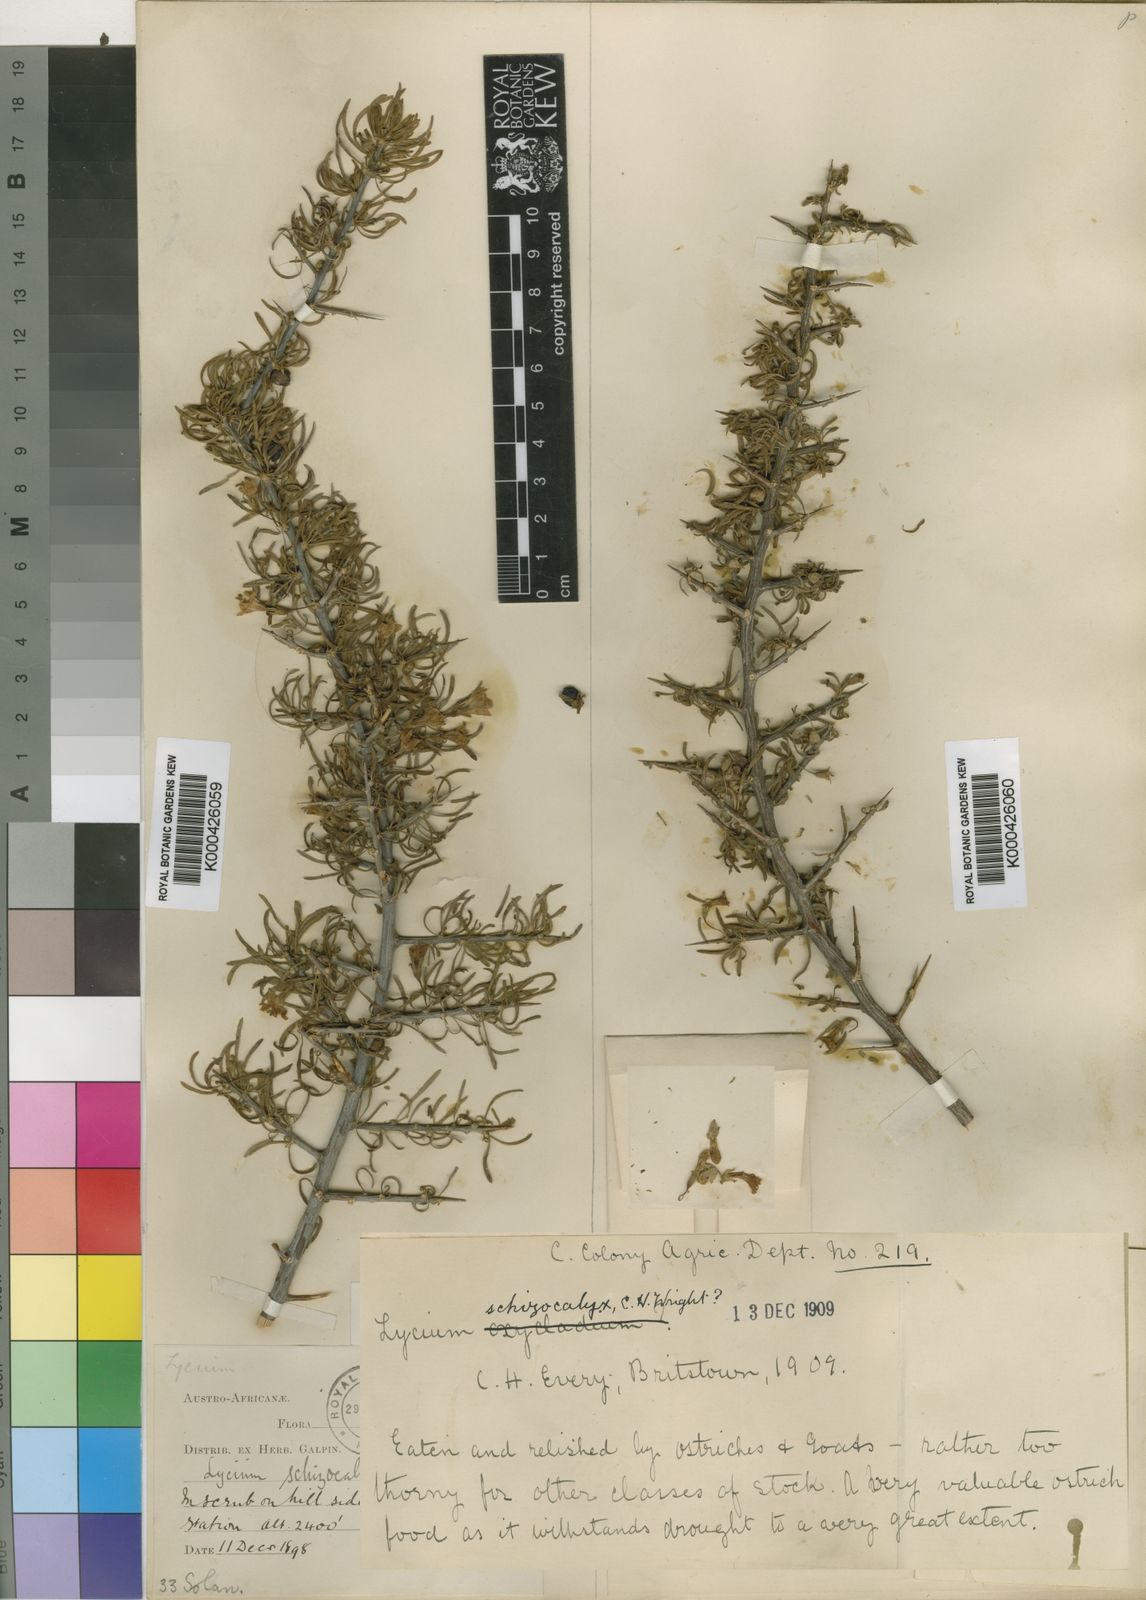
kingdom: Plantae
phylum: Tracheophyta
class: Magnoliopsida
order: Solanales
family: Solanaceae
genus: Lycium
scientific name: Lycium schizocalyx
